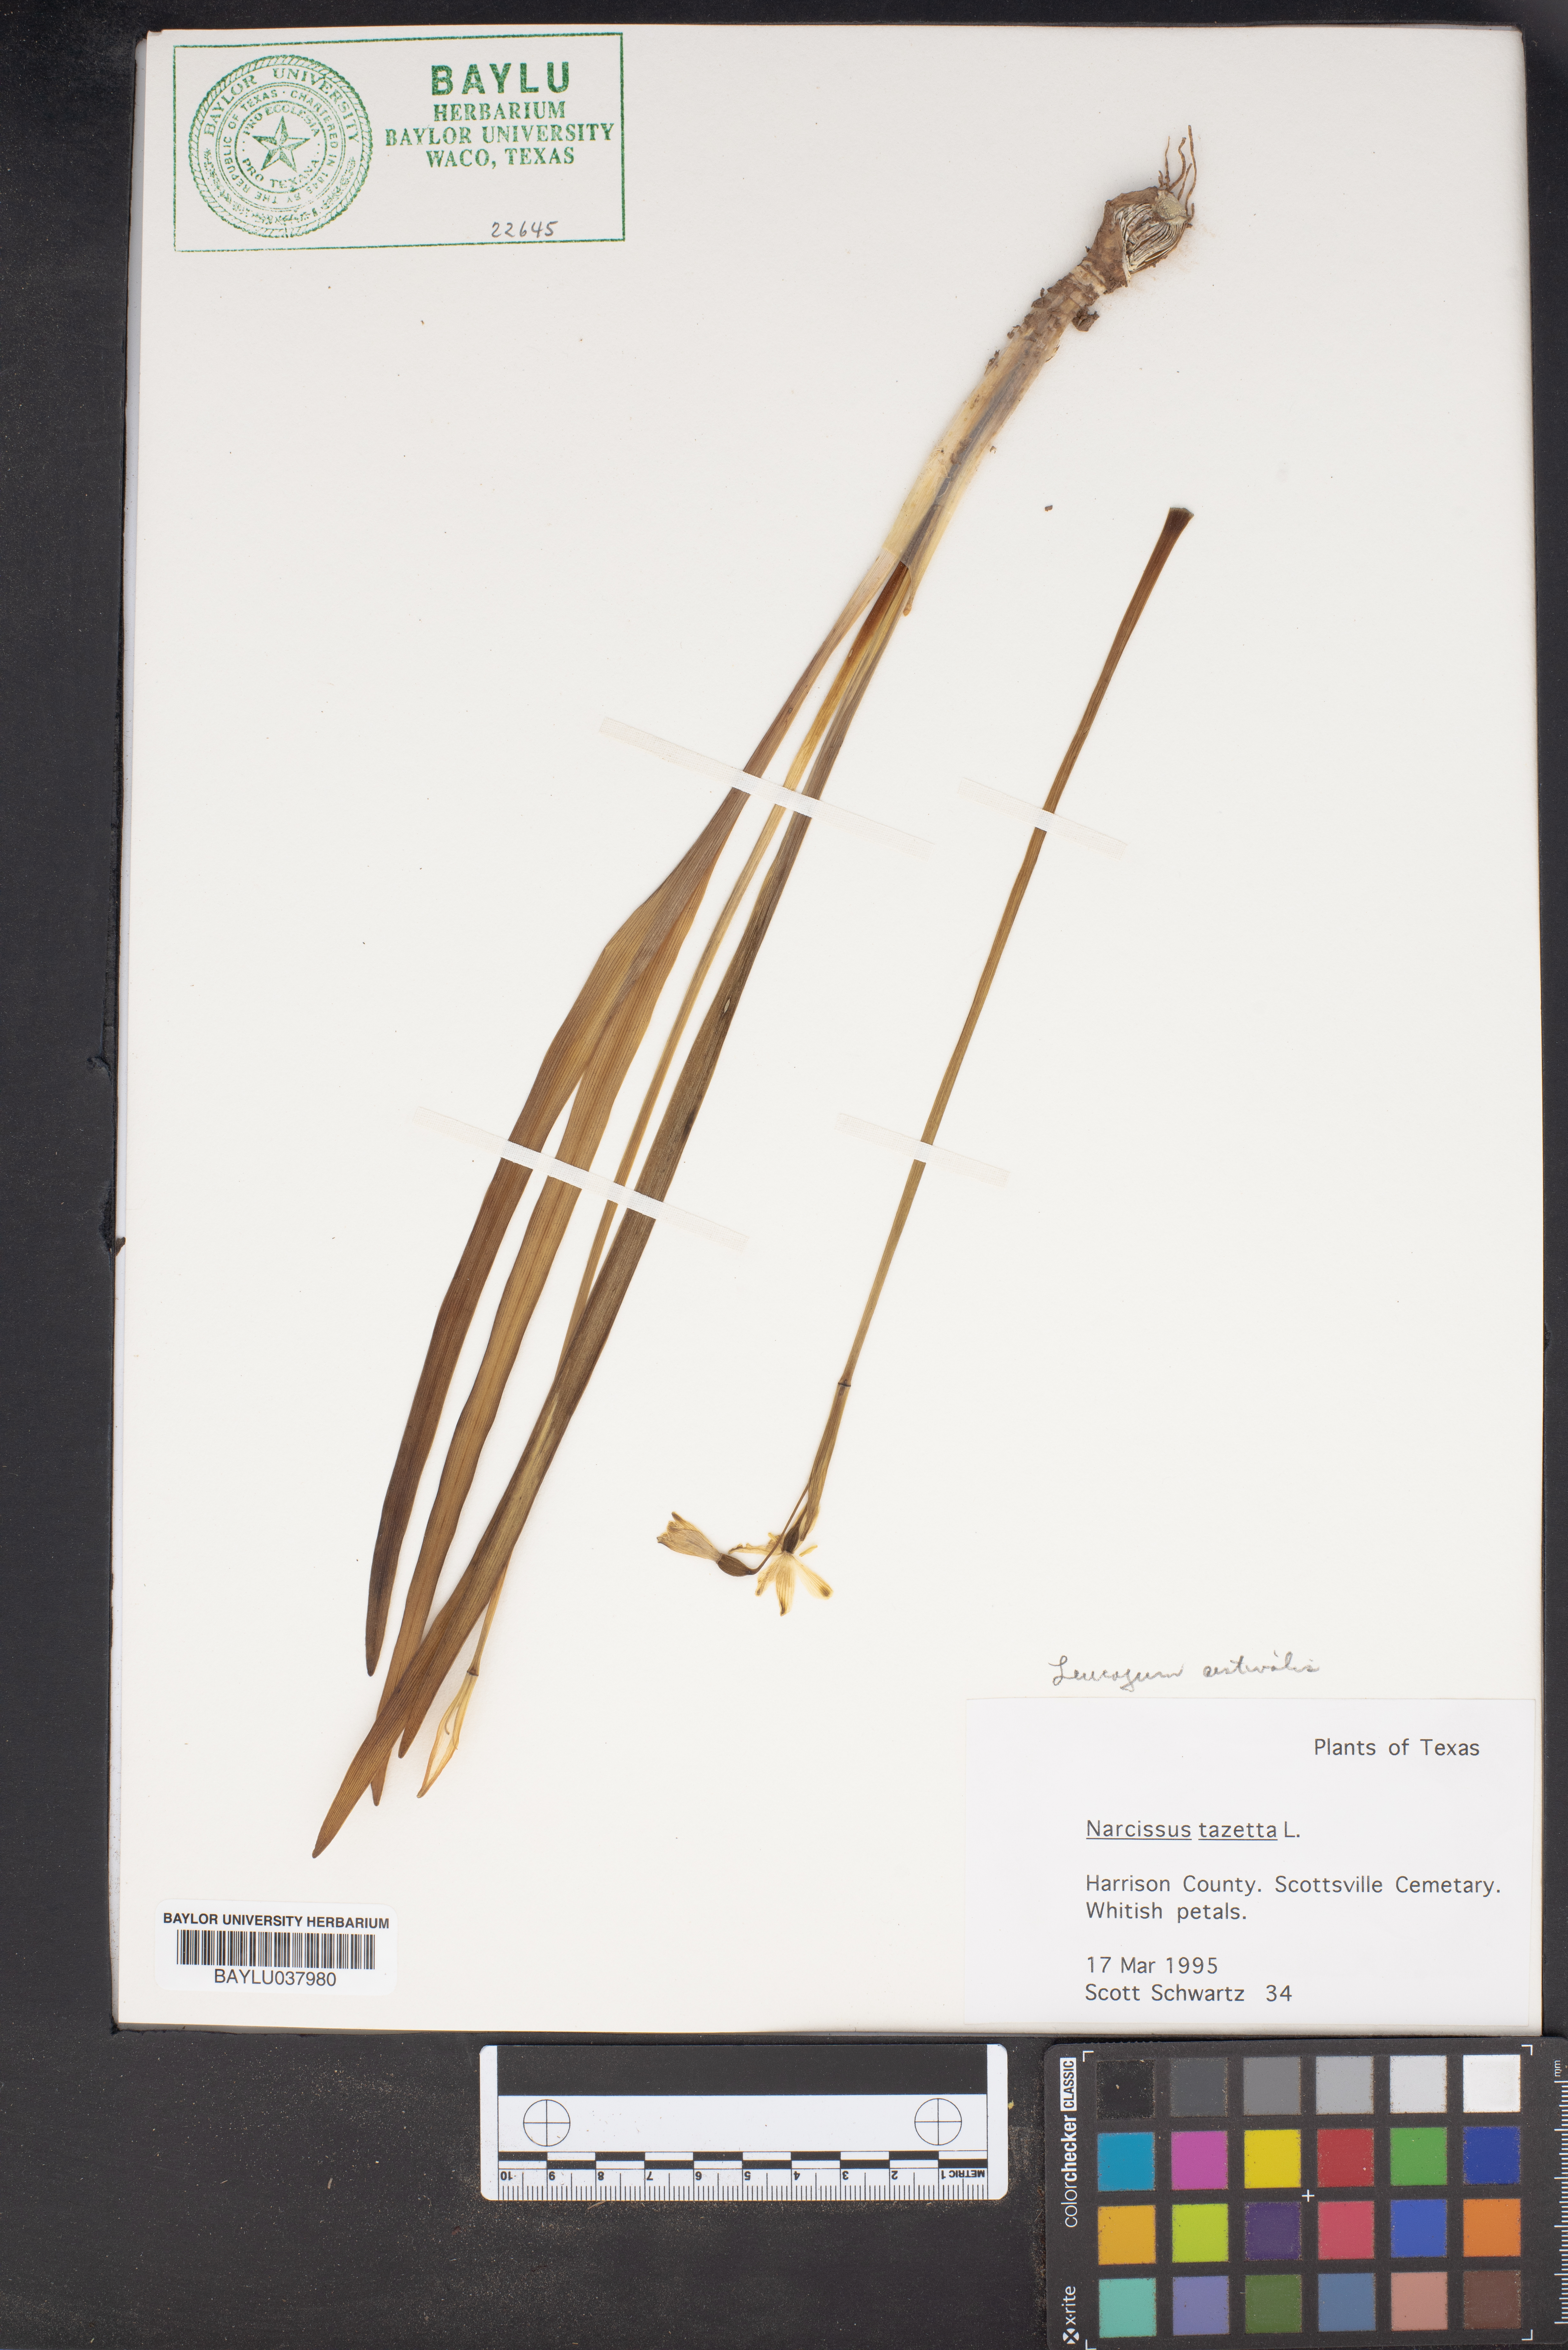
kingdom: Plantae
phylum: Tracheophyta
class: Liliopsida
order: Asparagales
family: Amaryllidaceae
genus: Narcissus
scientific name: Narcissus tazetta
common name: Bunch-flowered daffodil
